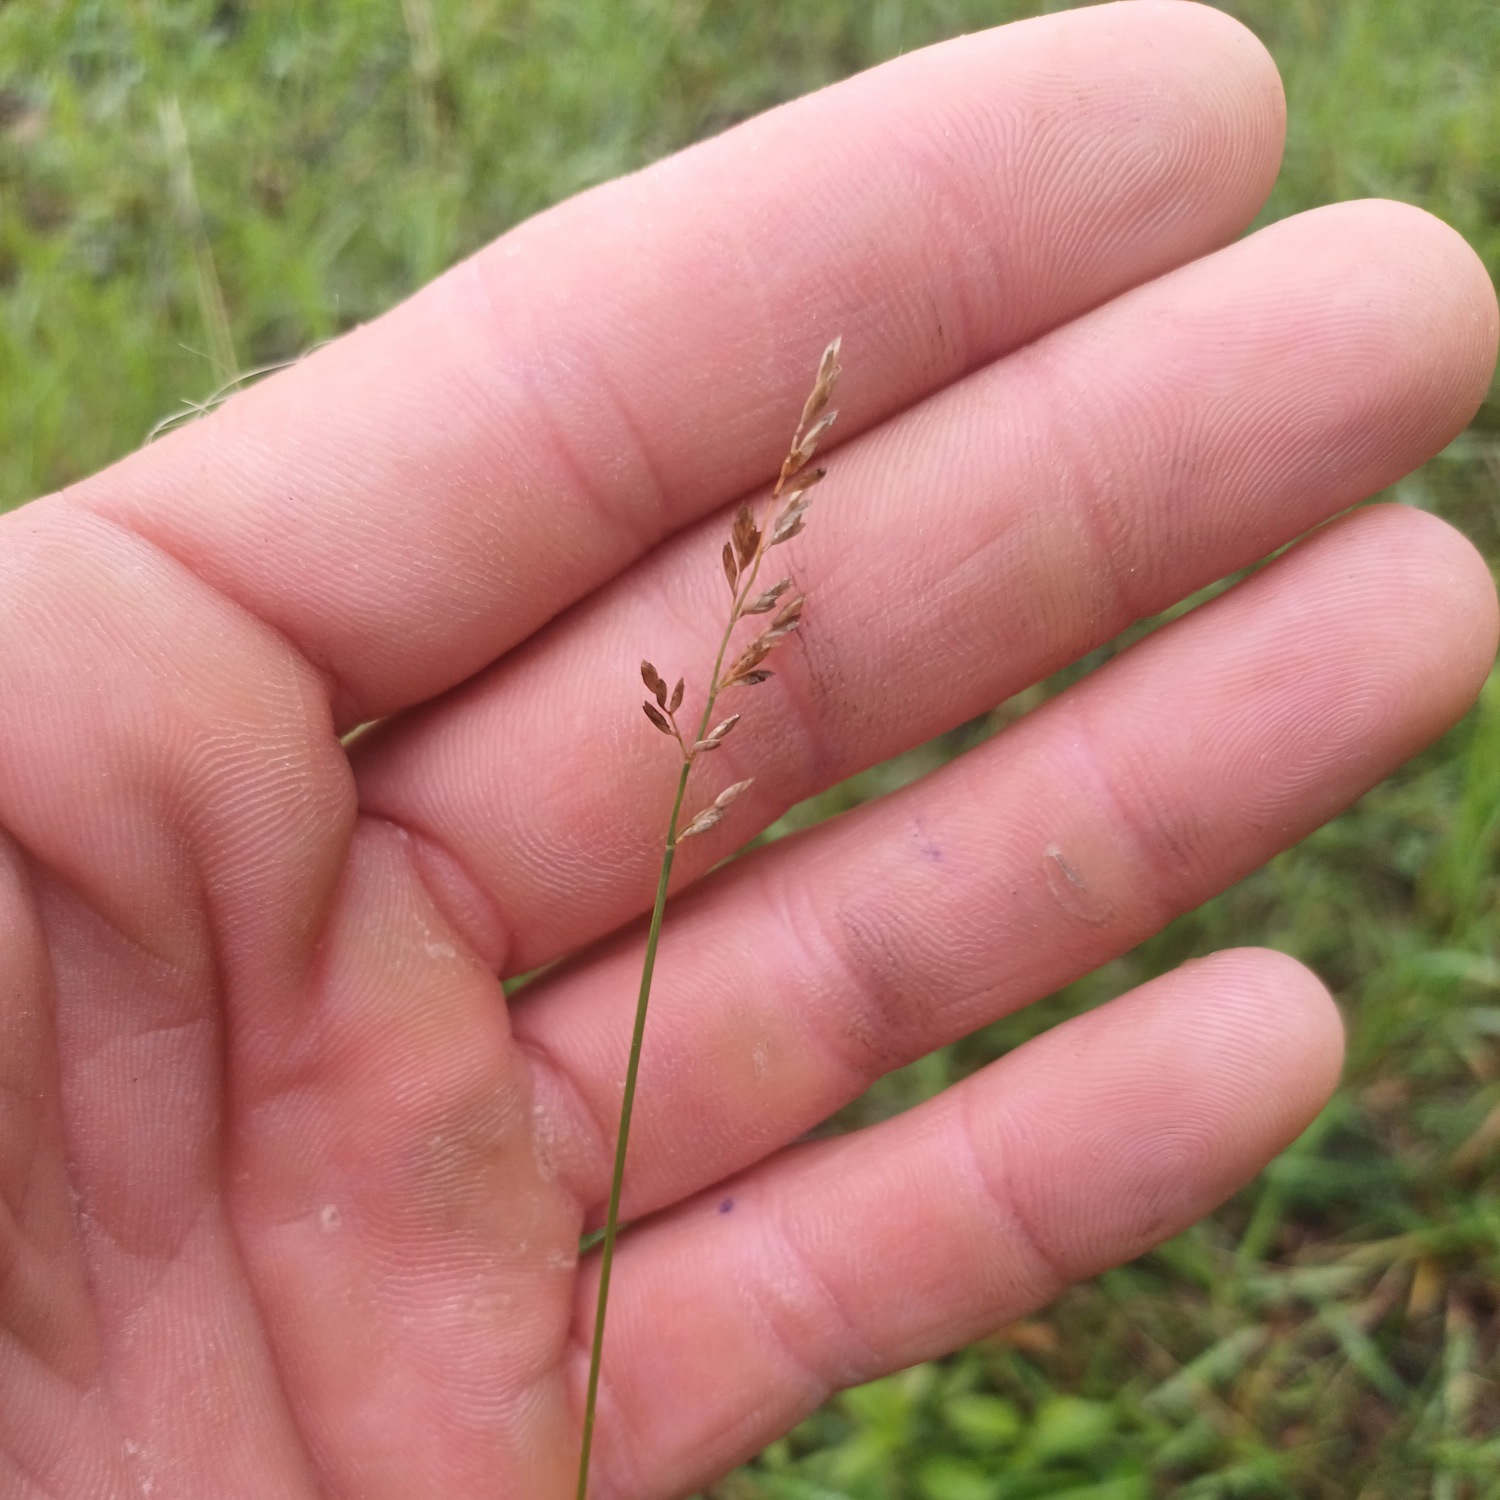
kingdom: Plantae
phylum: Tracheophyta
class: Liliopsida
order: Poales
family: Poaceae
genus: Poa
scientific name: Poa compressa
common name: Fladstrået rapgræs
